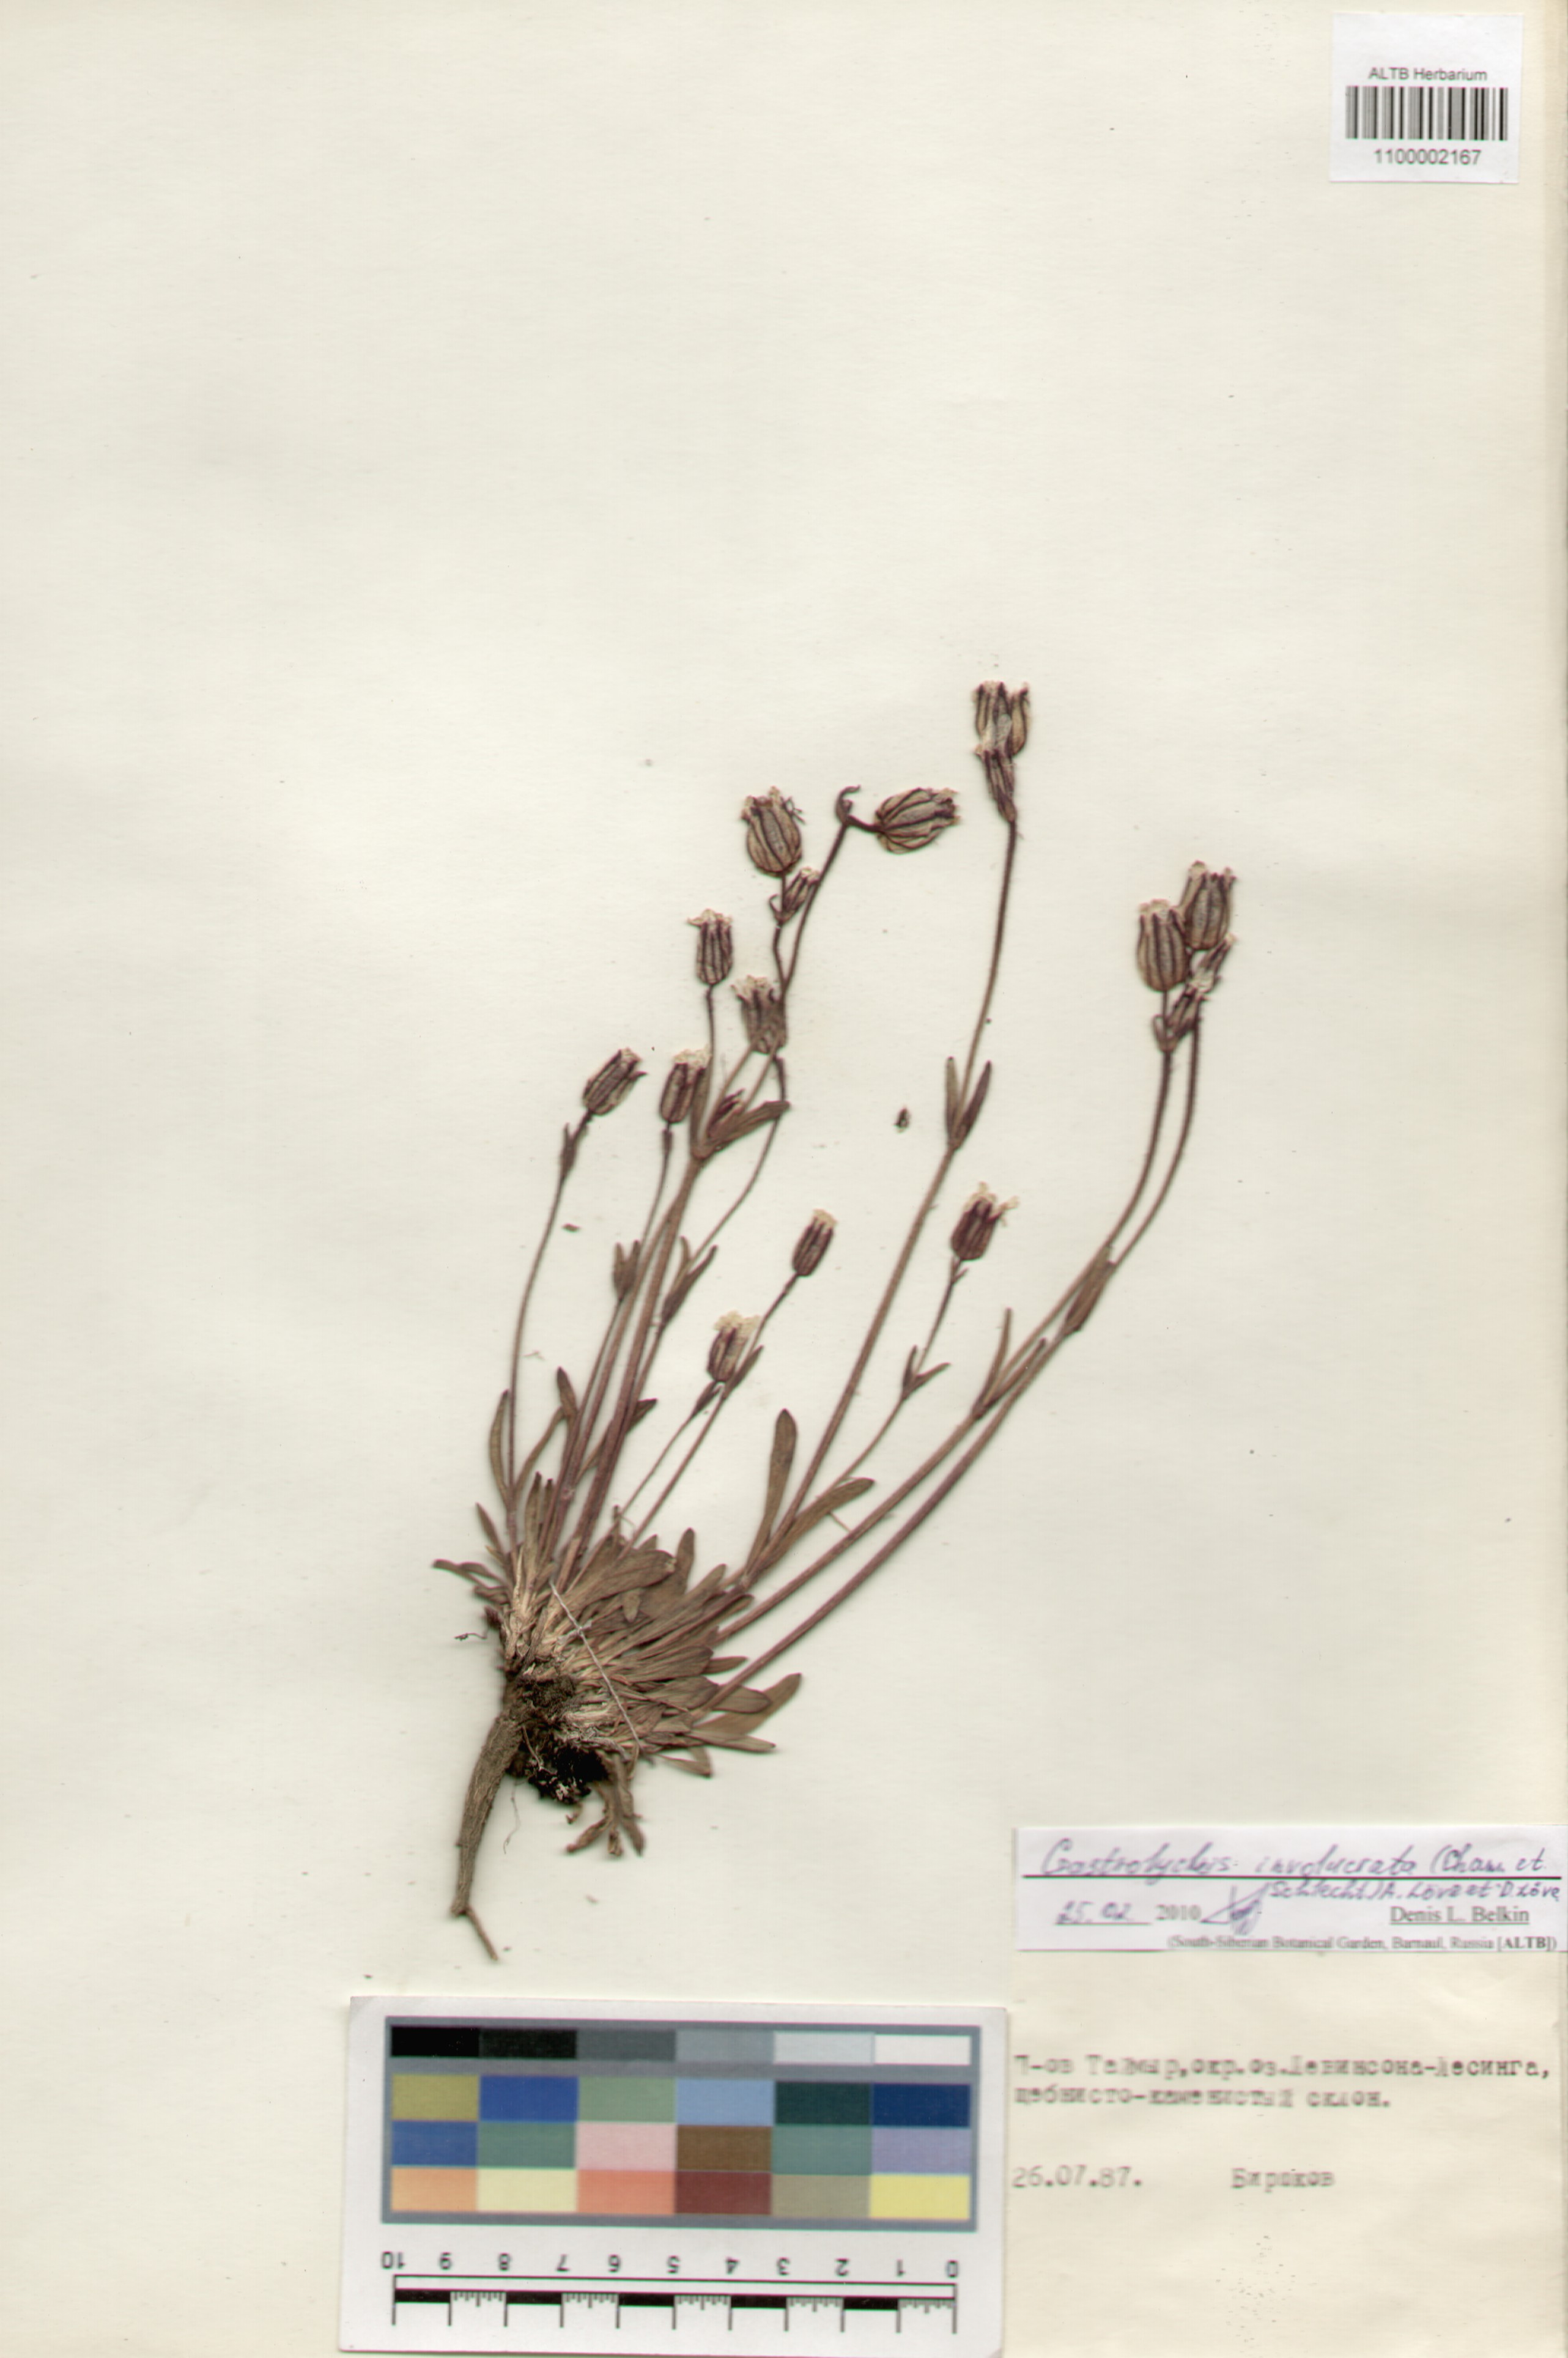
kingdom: Plantae
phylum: Tracheophyta
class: Magnoliopsida
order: Caryophyllales
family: Caryophyllaceae
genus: Silene
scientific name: Silene involucrata
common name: Greater arctic campion
